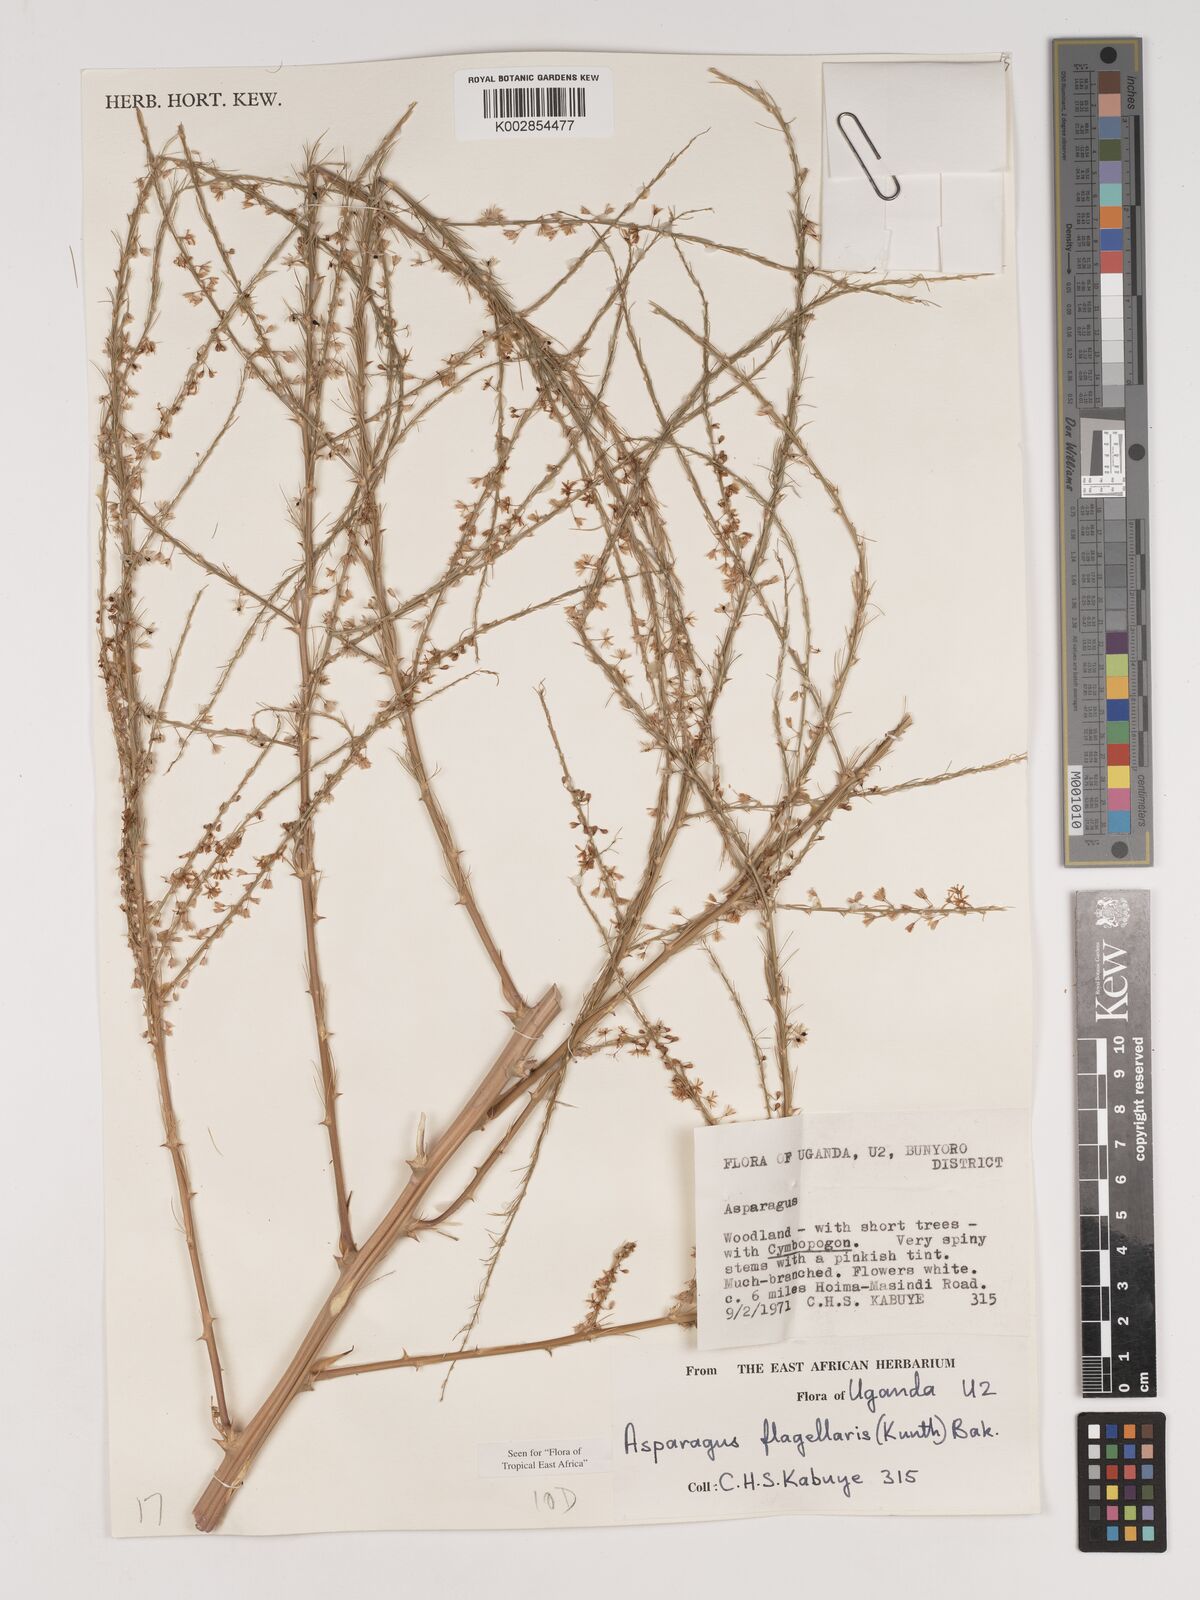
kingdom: Plantae
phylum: Tracheophyta
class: Liliopsida
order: Asparagales
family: Asparagaceae
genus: Asparagus
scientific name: Asparagus flagellaris
